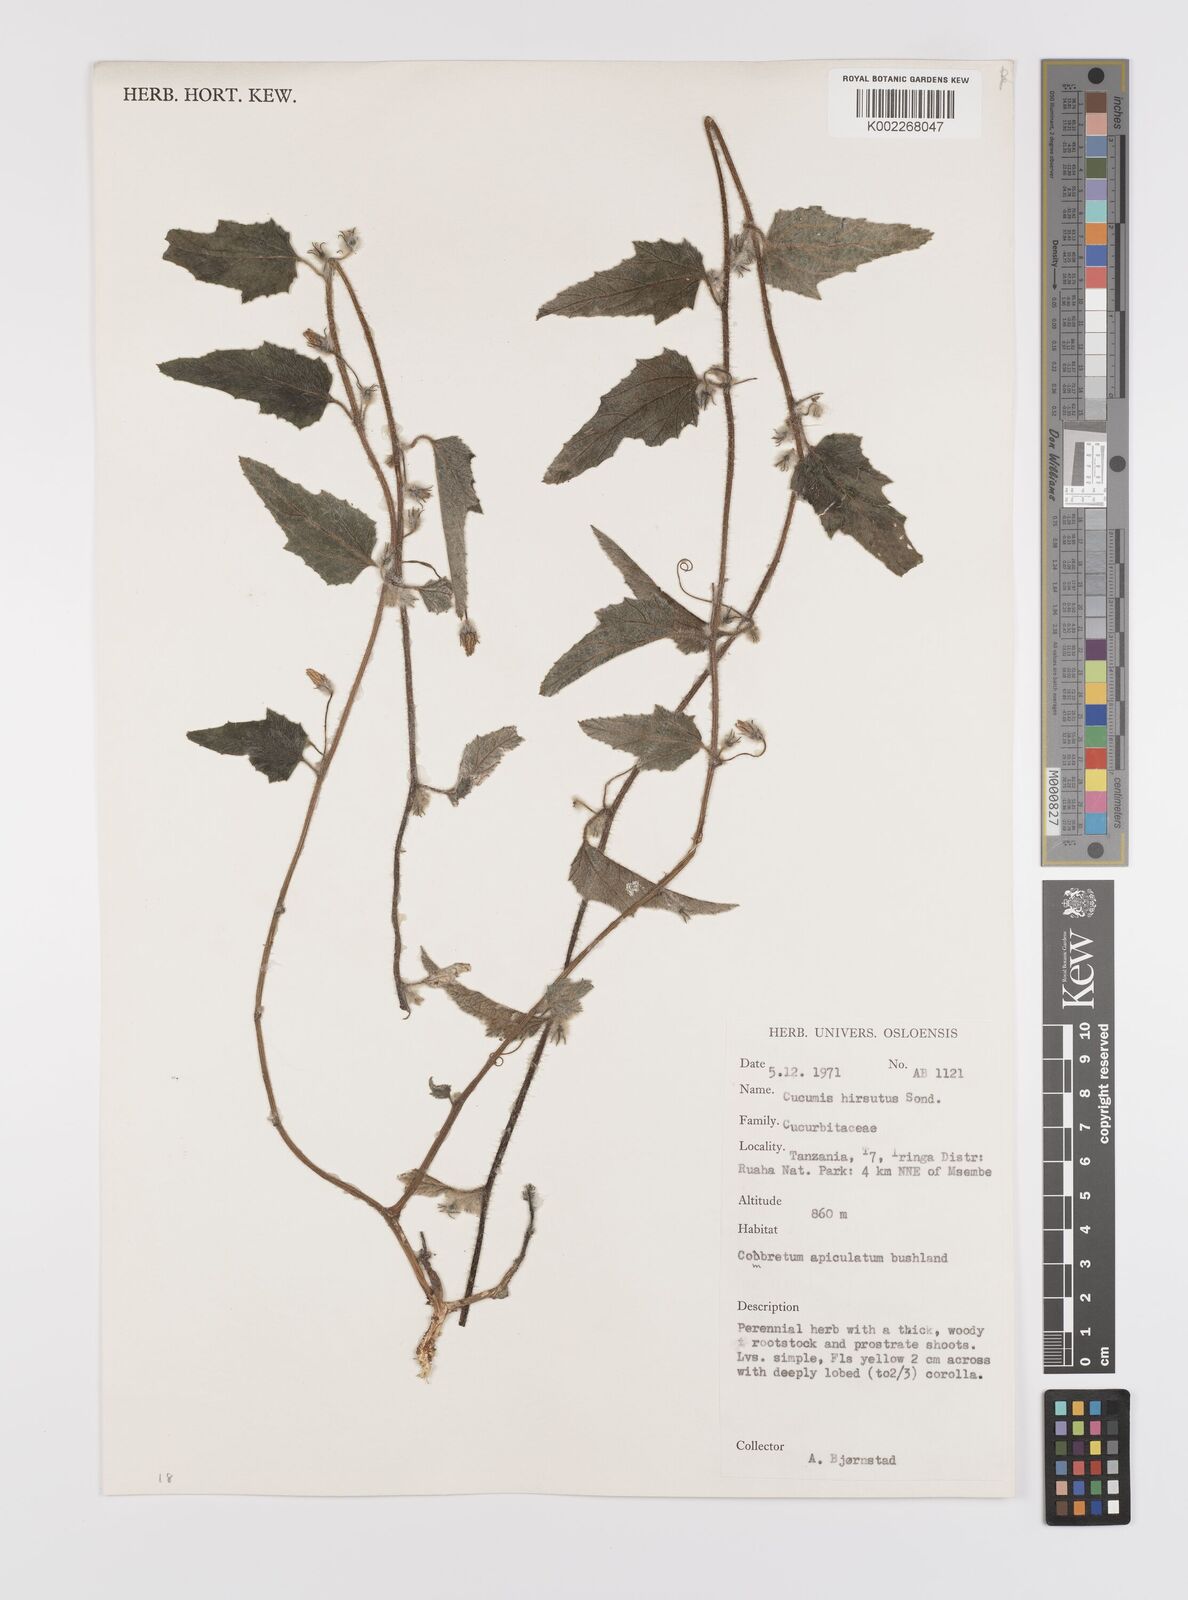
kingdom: Plantae
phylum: Tracheophyta
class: Magnoliopsida
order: Cucurbitales
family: Cucurbitaceae
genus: Cucumis
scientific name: Cucumis hirsutus
